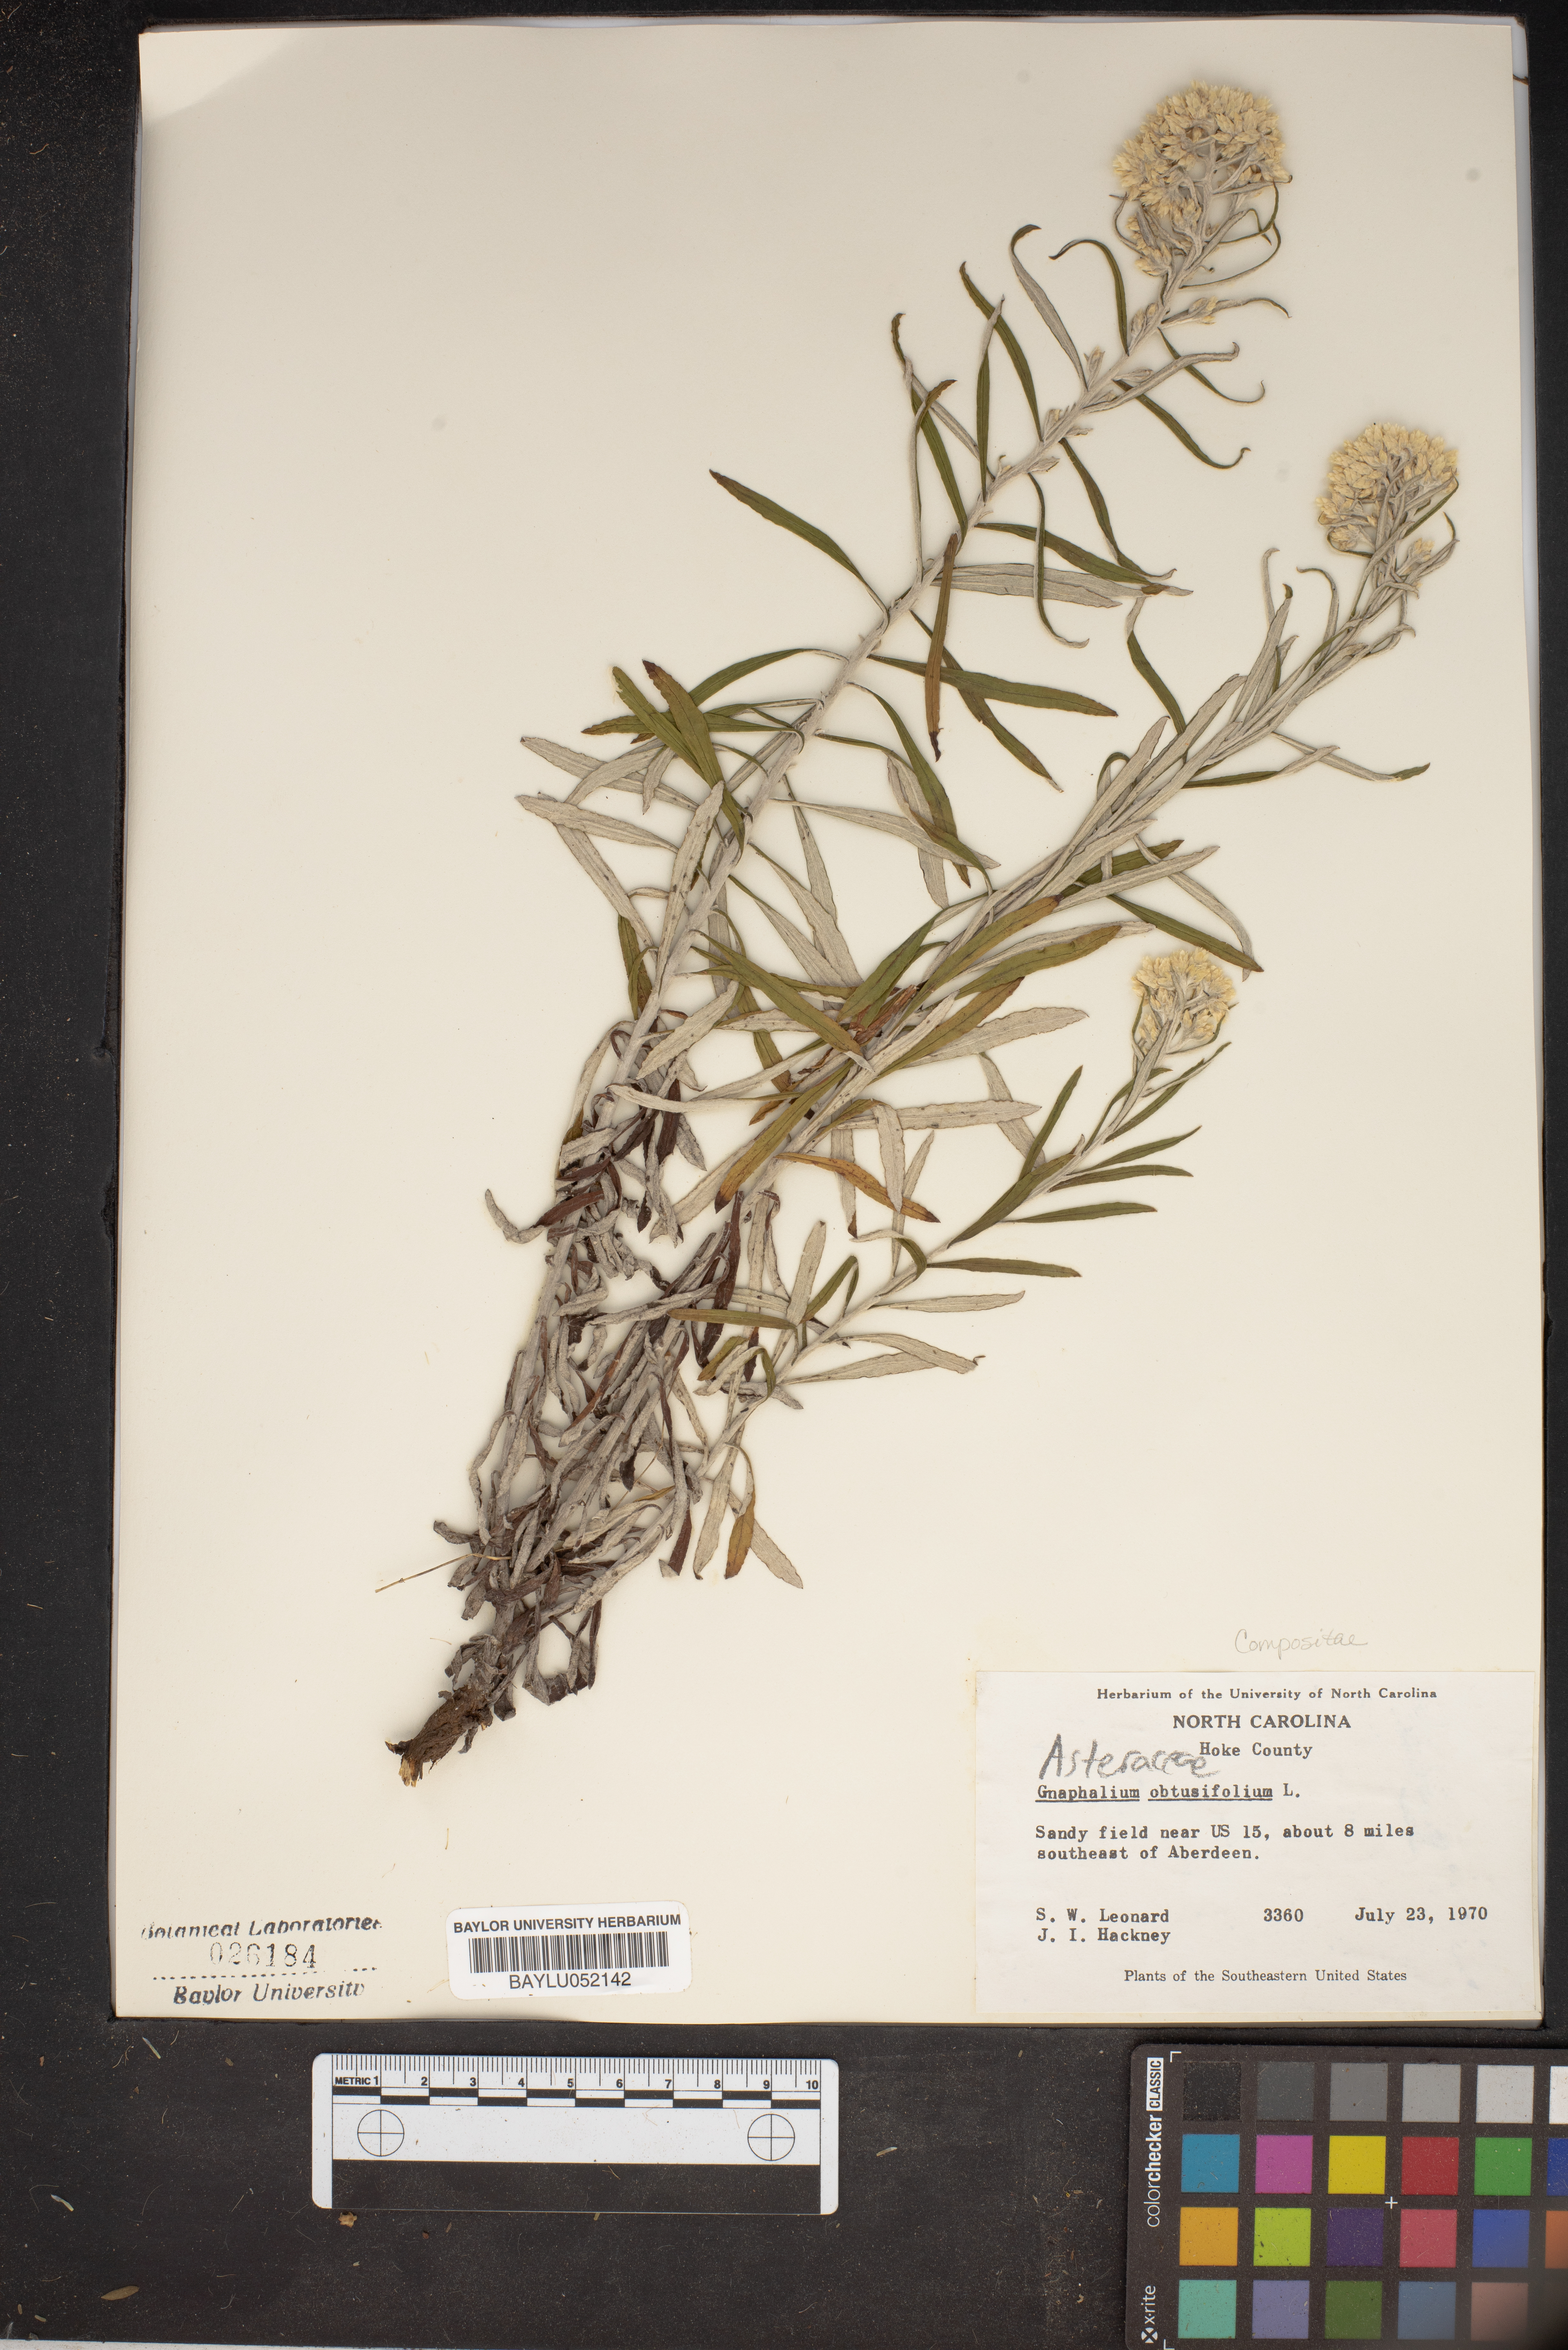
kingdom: Plantae
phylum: Tracheophyta
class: Magnoliopsida
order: Asterales
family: Asteraceae
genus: Pseudognaphalium
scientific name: Pseudognaphalium obtusifolium
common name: Eastern rabbit-tobacco
